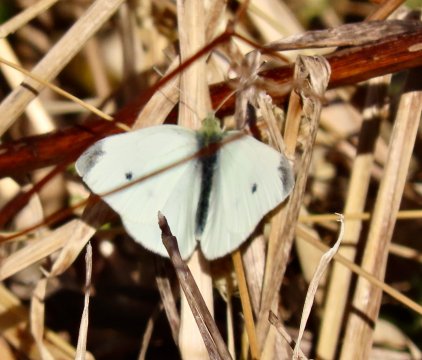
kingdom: Animalia
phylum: Arthropoda
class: Insecta
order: Lepidoptera
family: Pieridae
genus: Pieris
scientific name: Pieris rapae
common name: Cabbage White
